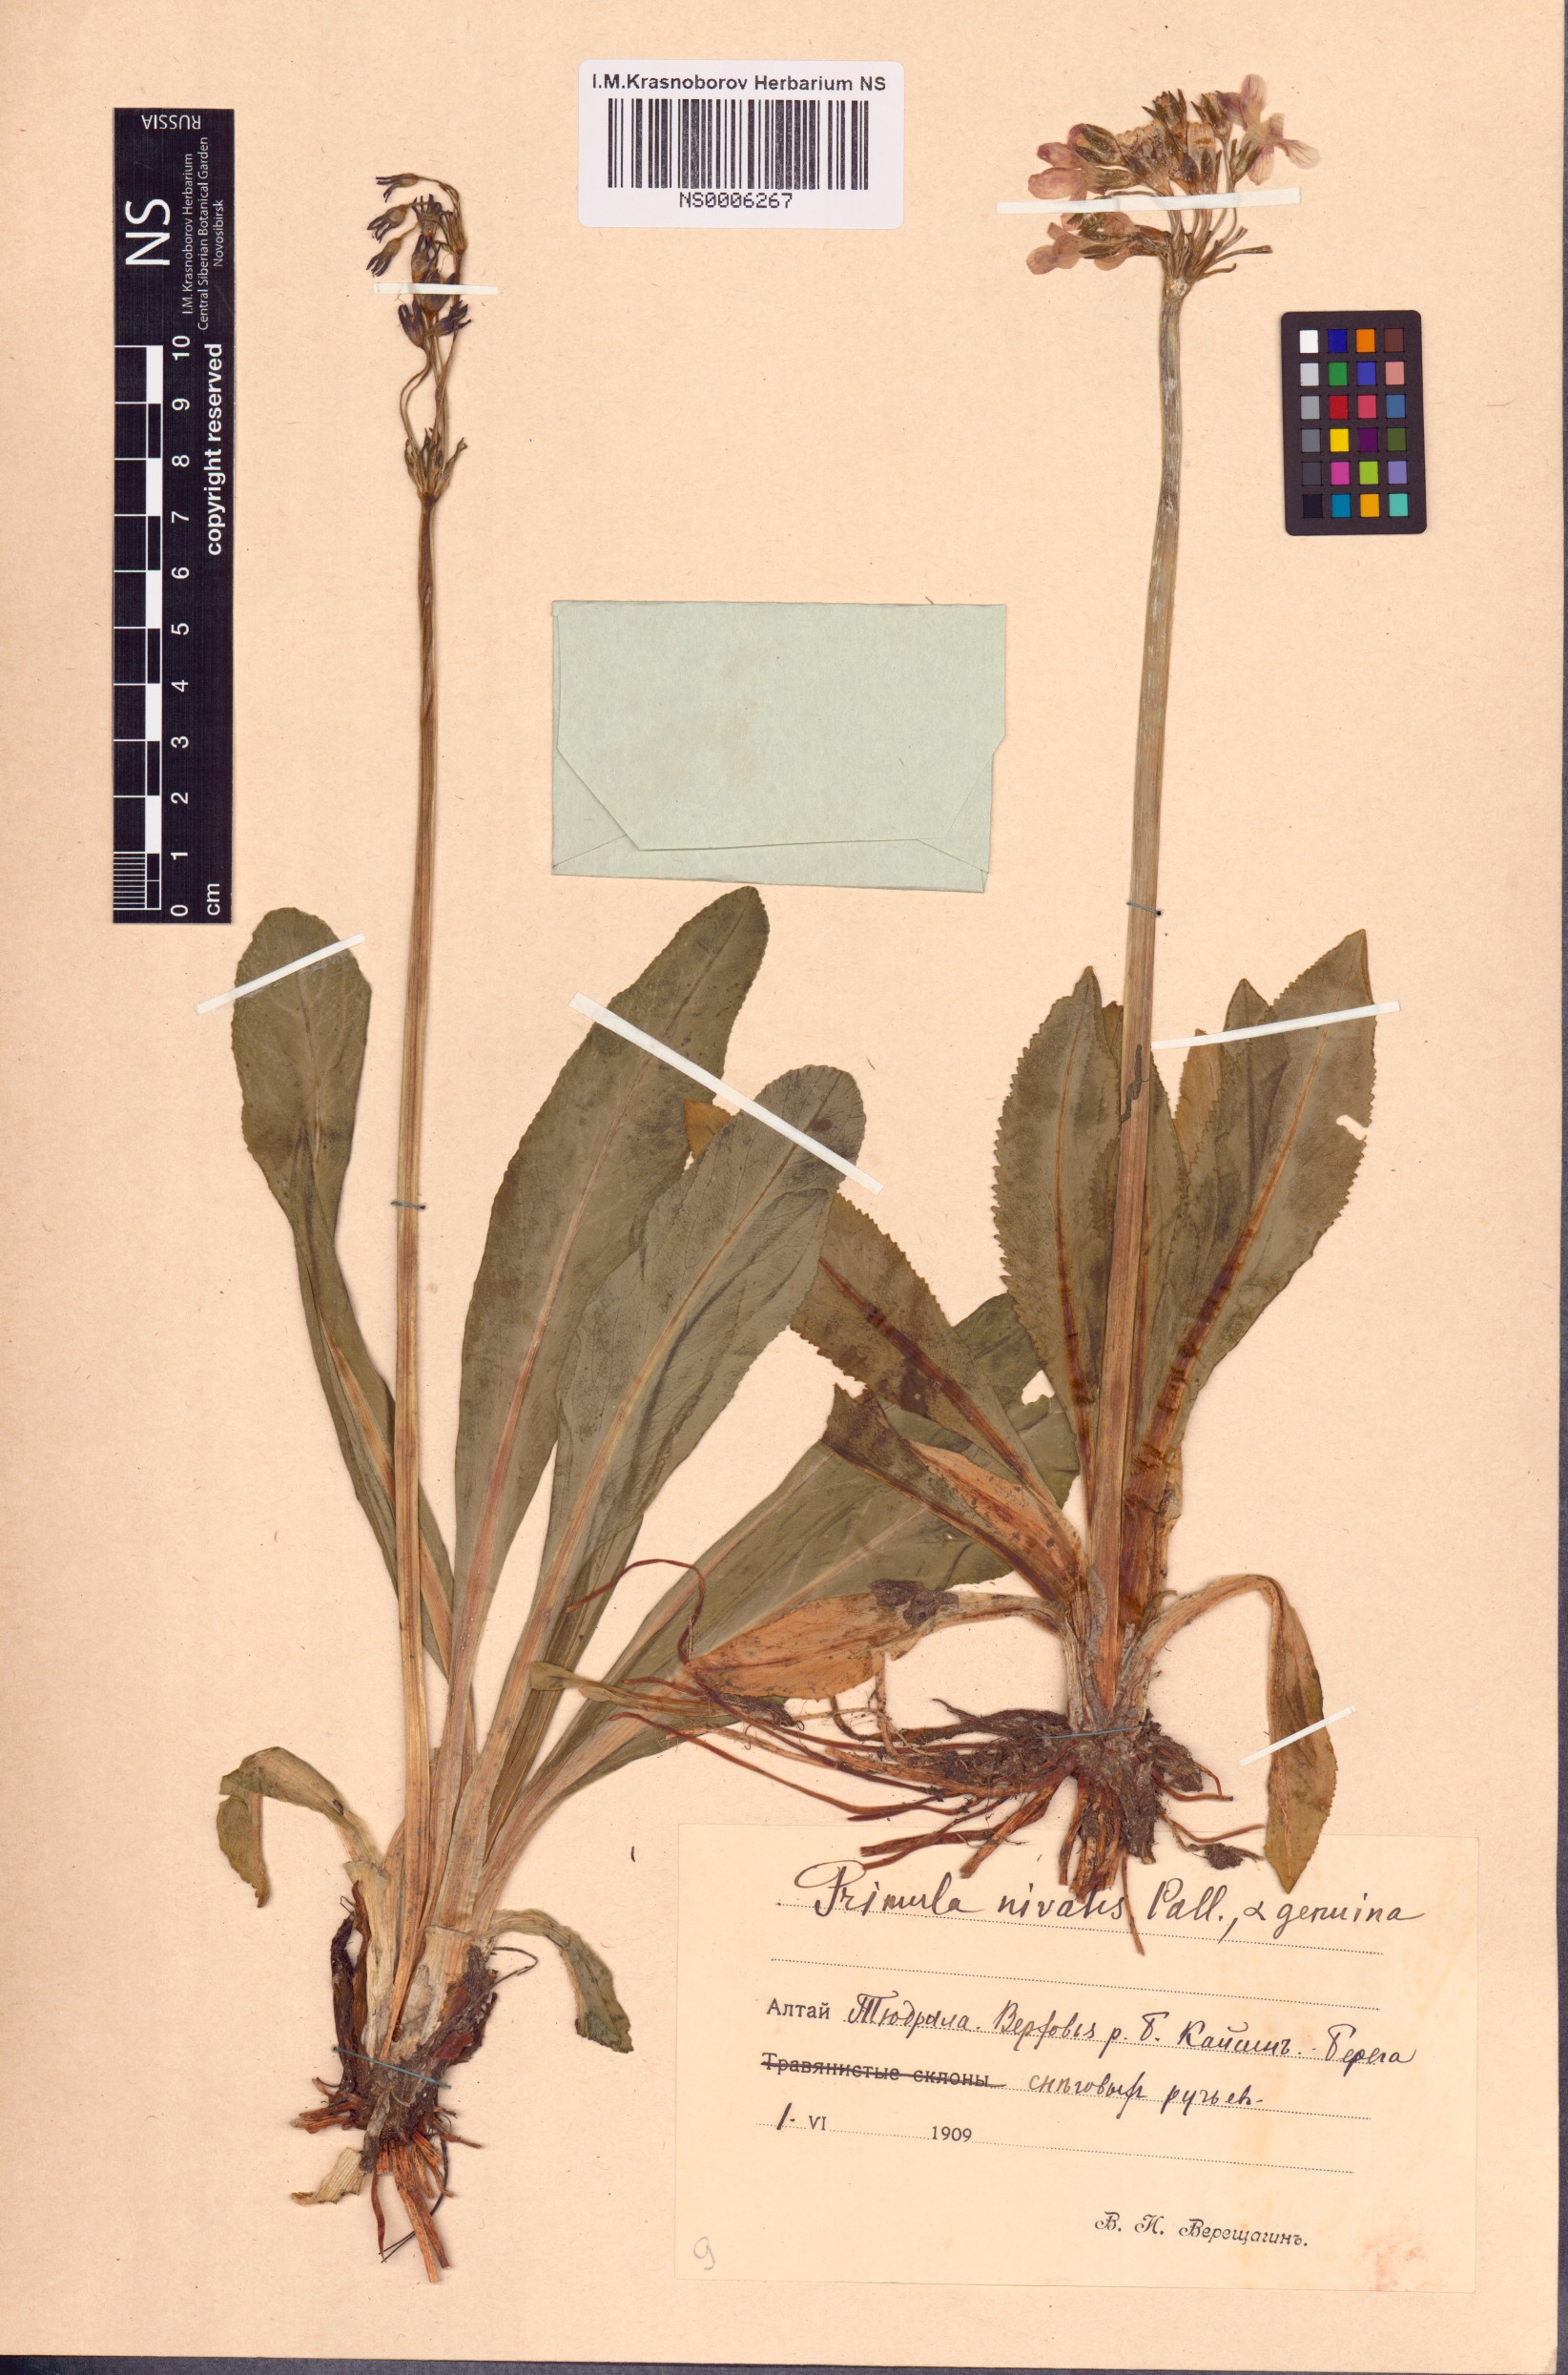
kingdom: Plantae
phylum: Tracheophyta
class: Magnoliopsida
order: Ericales
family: Primulaceae
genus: Primula
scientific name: Primula nivalis
